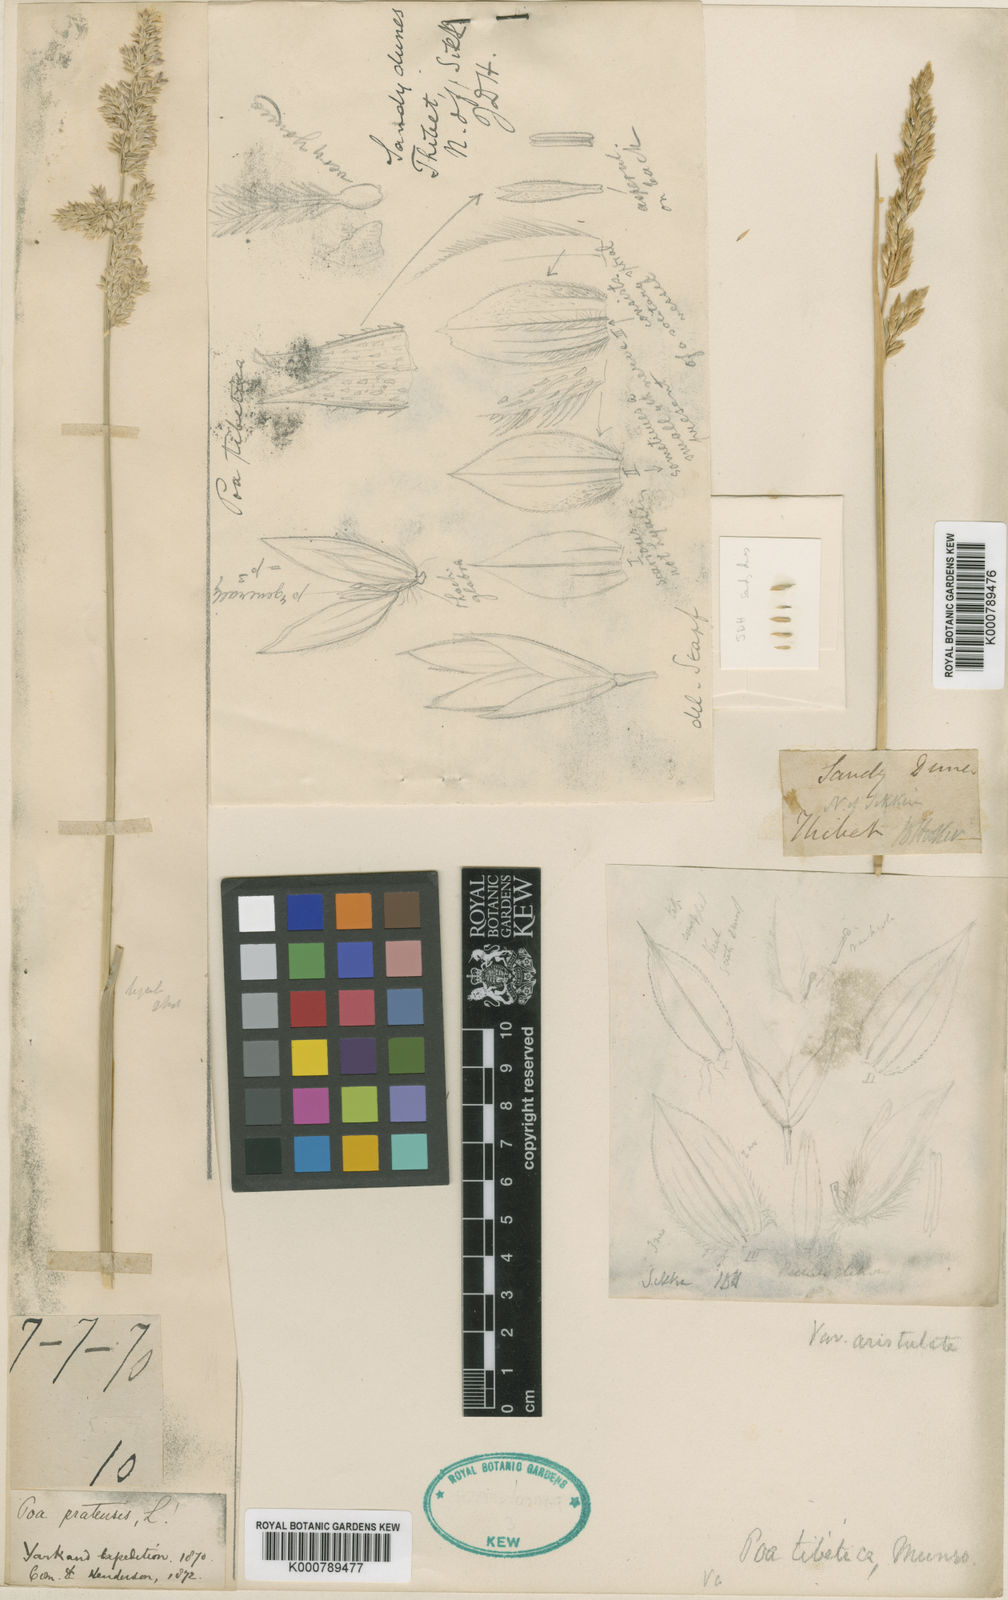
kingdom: Plantae
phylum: Tracheophyta
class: Liliopsida
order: Poales
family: Poaceae
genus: Arctopoa
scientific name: Arctopoa tibetica
